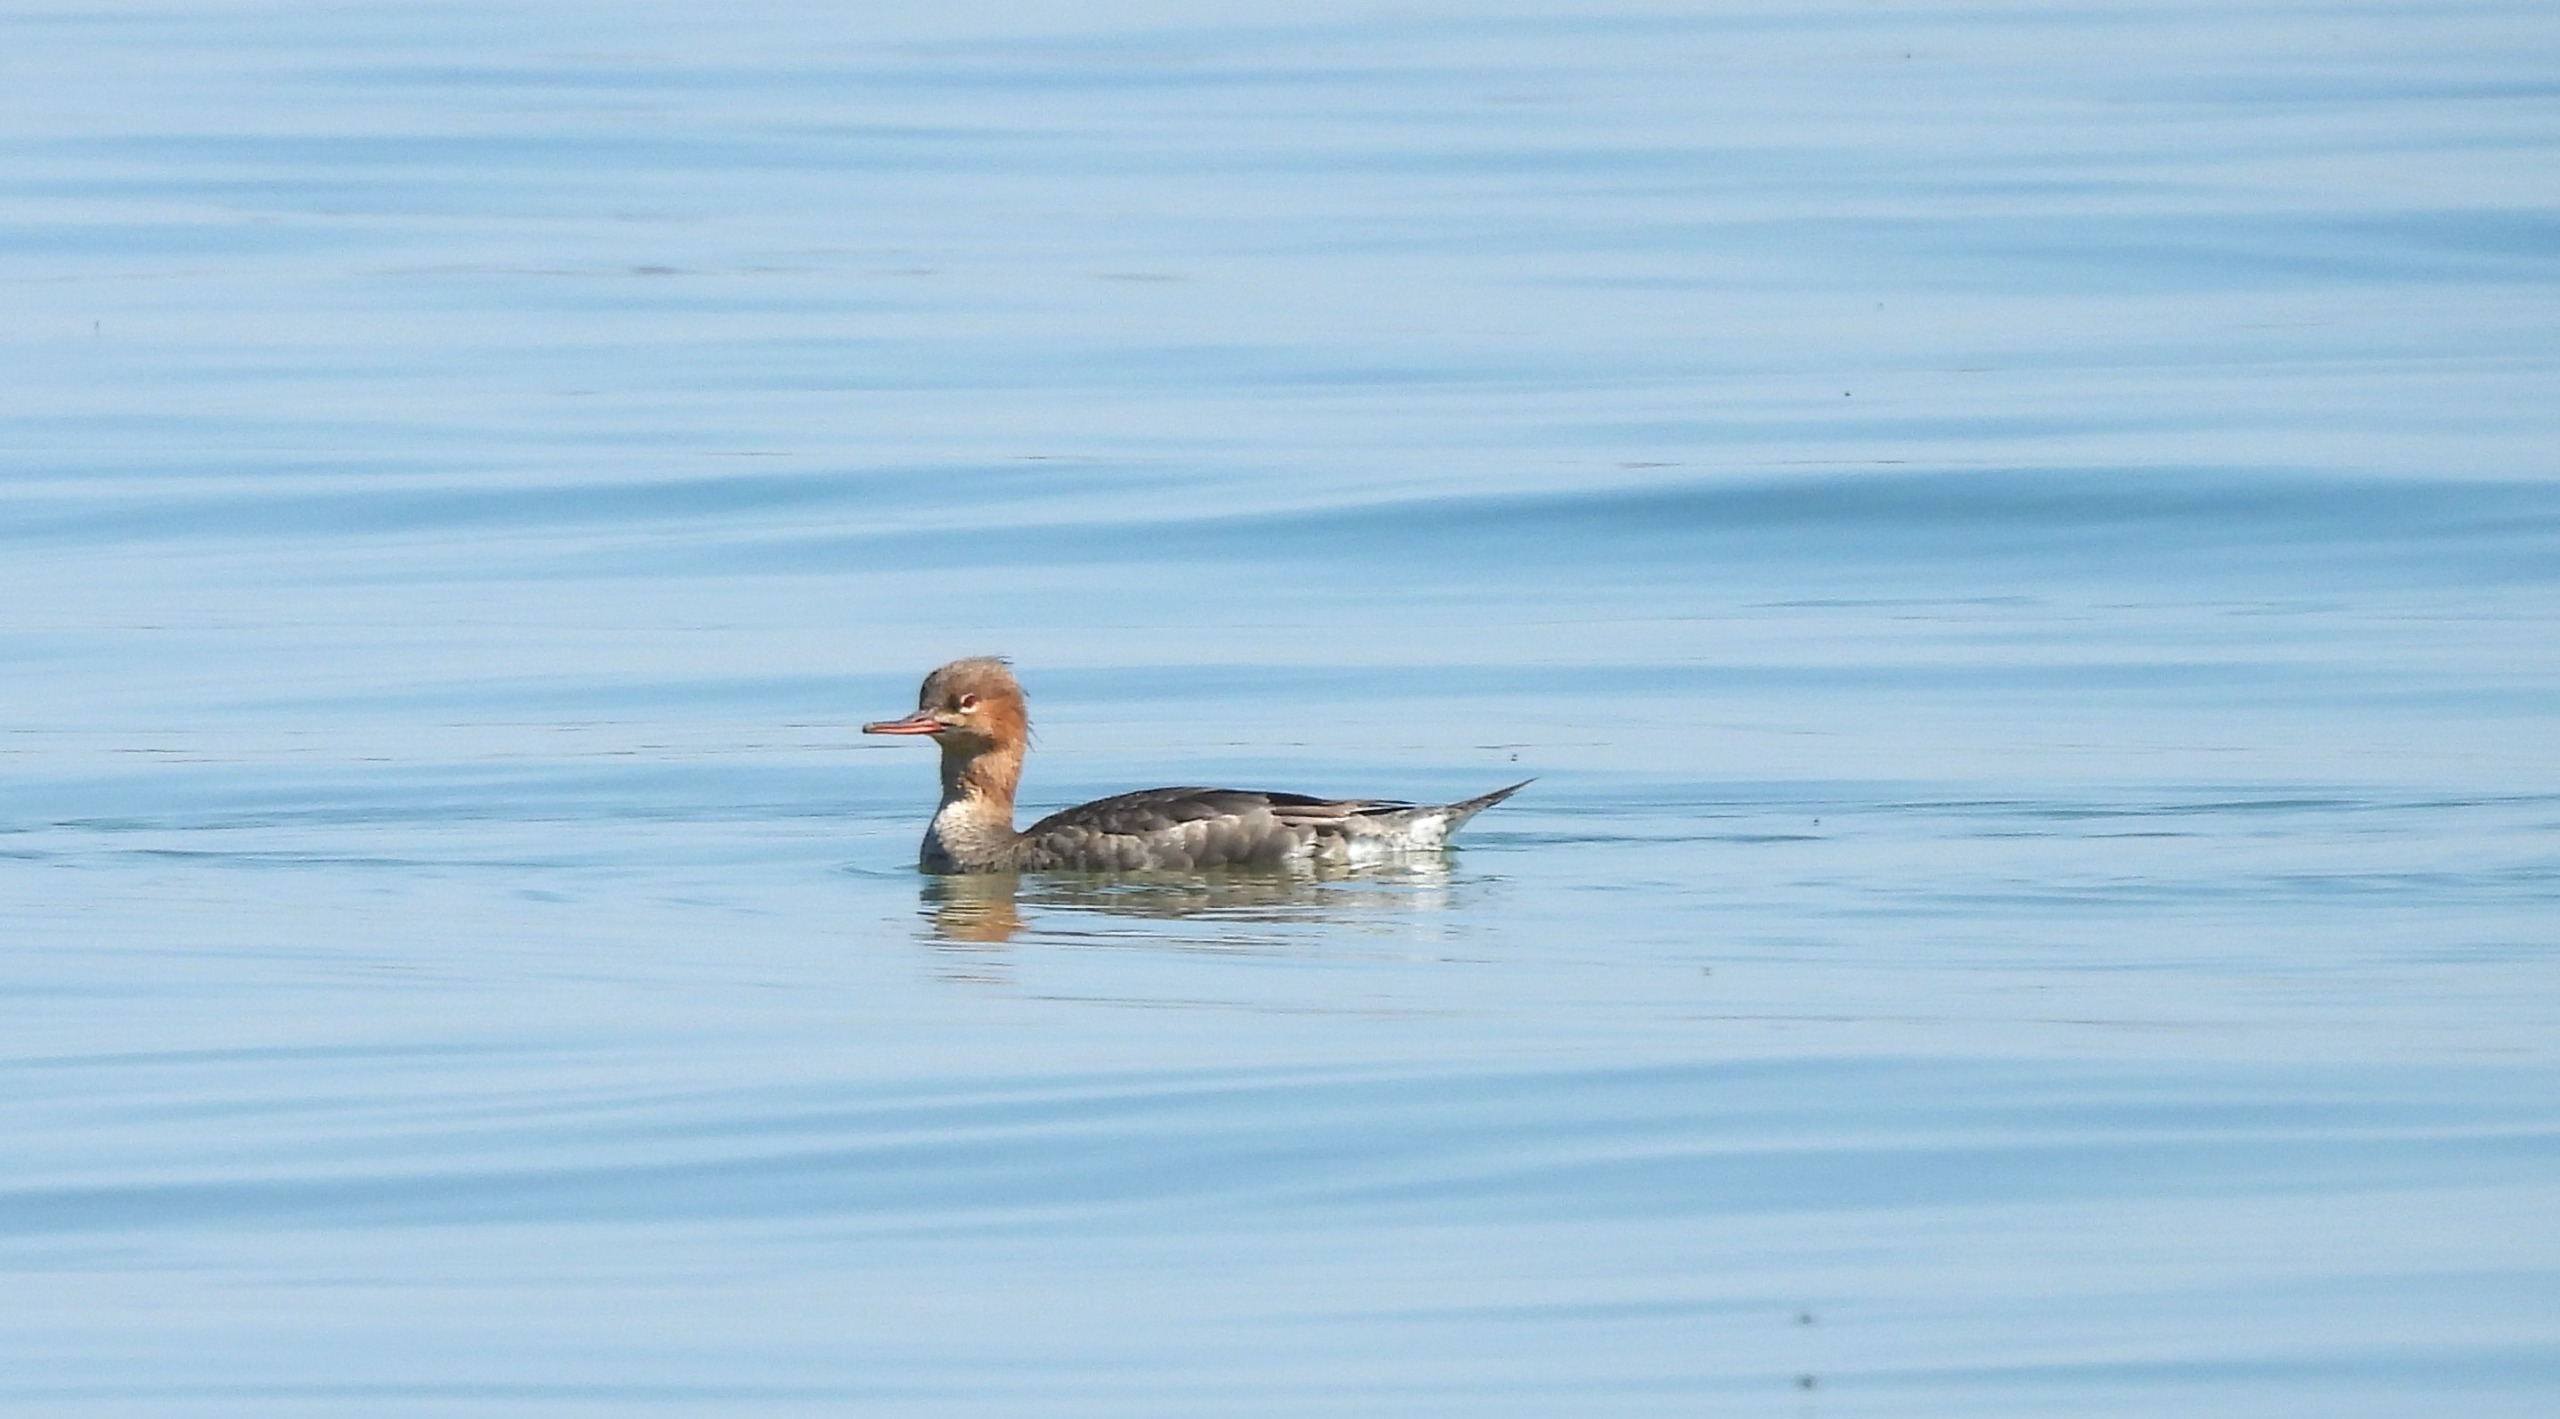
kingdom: Animalia
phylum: Chordata
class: Aves
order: Anseriformes
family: Anatidae
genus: Mergus
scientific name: Mergus serrator
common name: Toppet skallesluger
